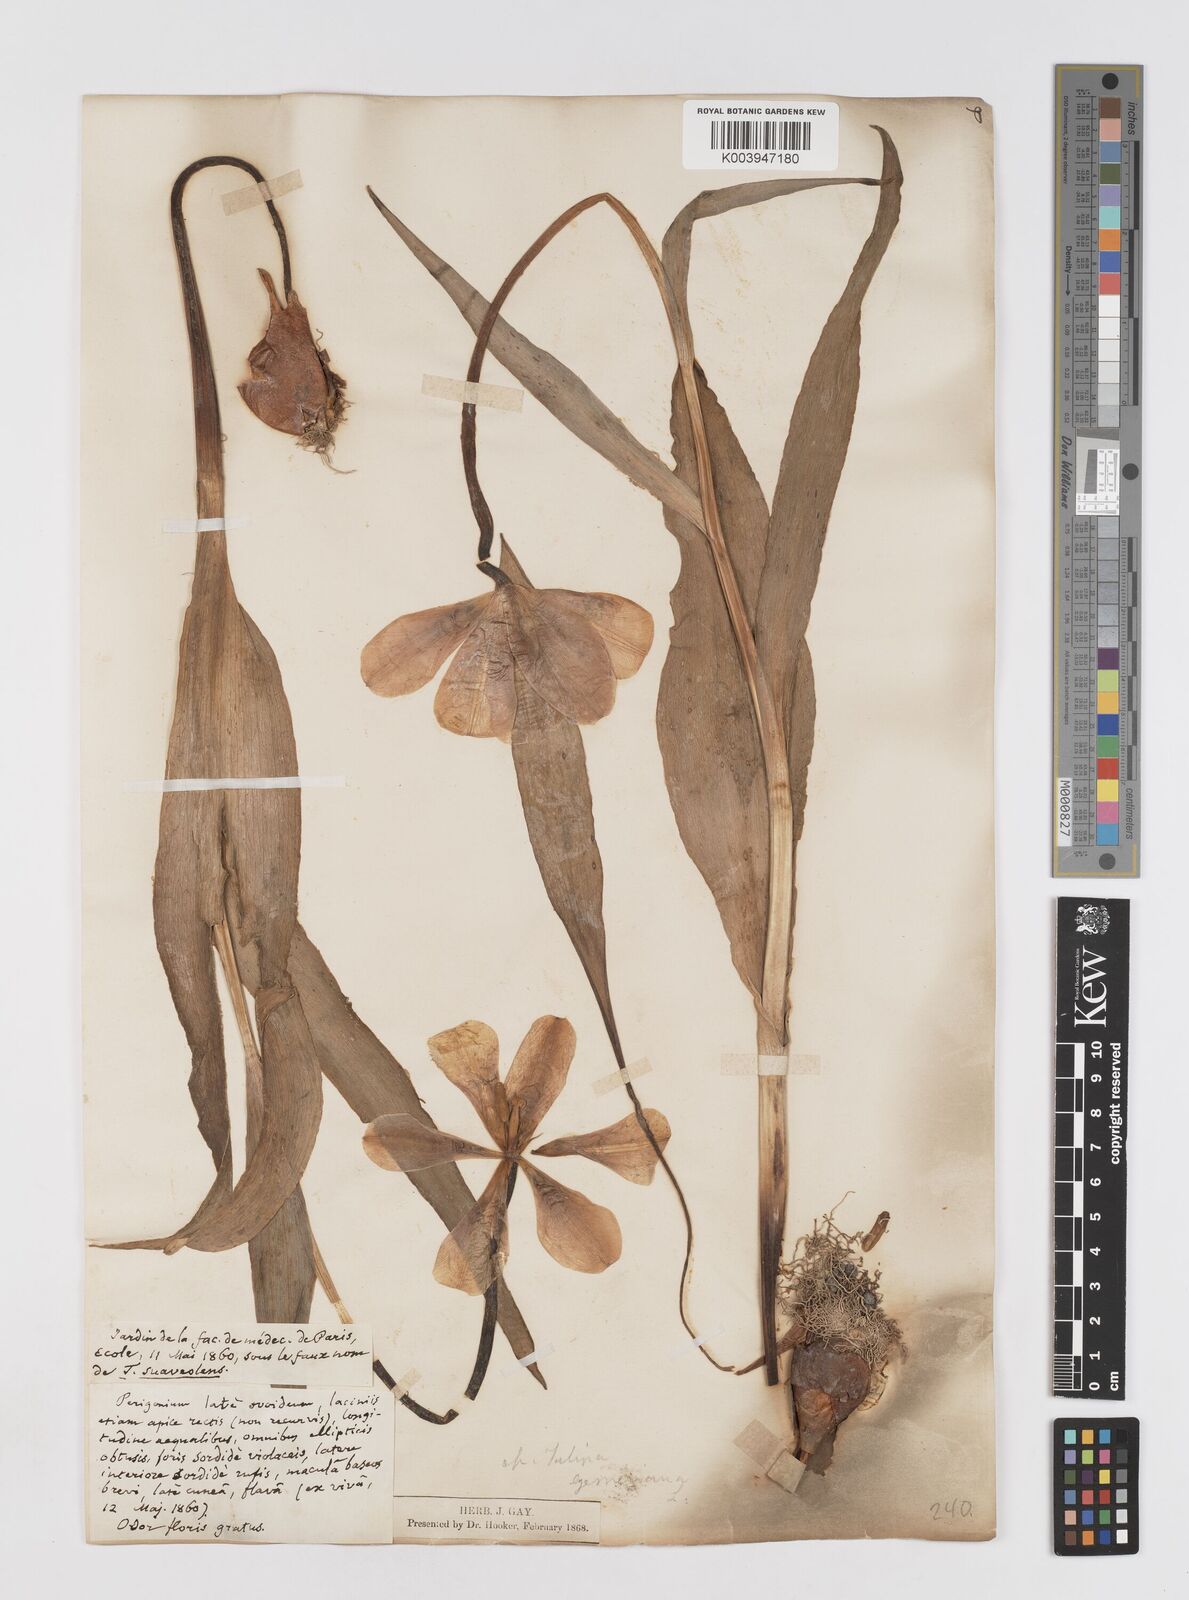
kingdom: Plantae
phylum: Tracheophyta
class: Liliopsida
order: Liliales
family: Liliaceae
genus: Tulipa
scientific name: Tulipa gesneriana
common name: Garden tulip
